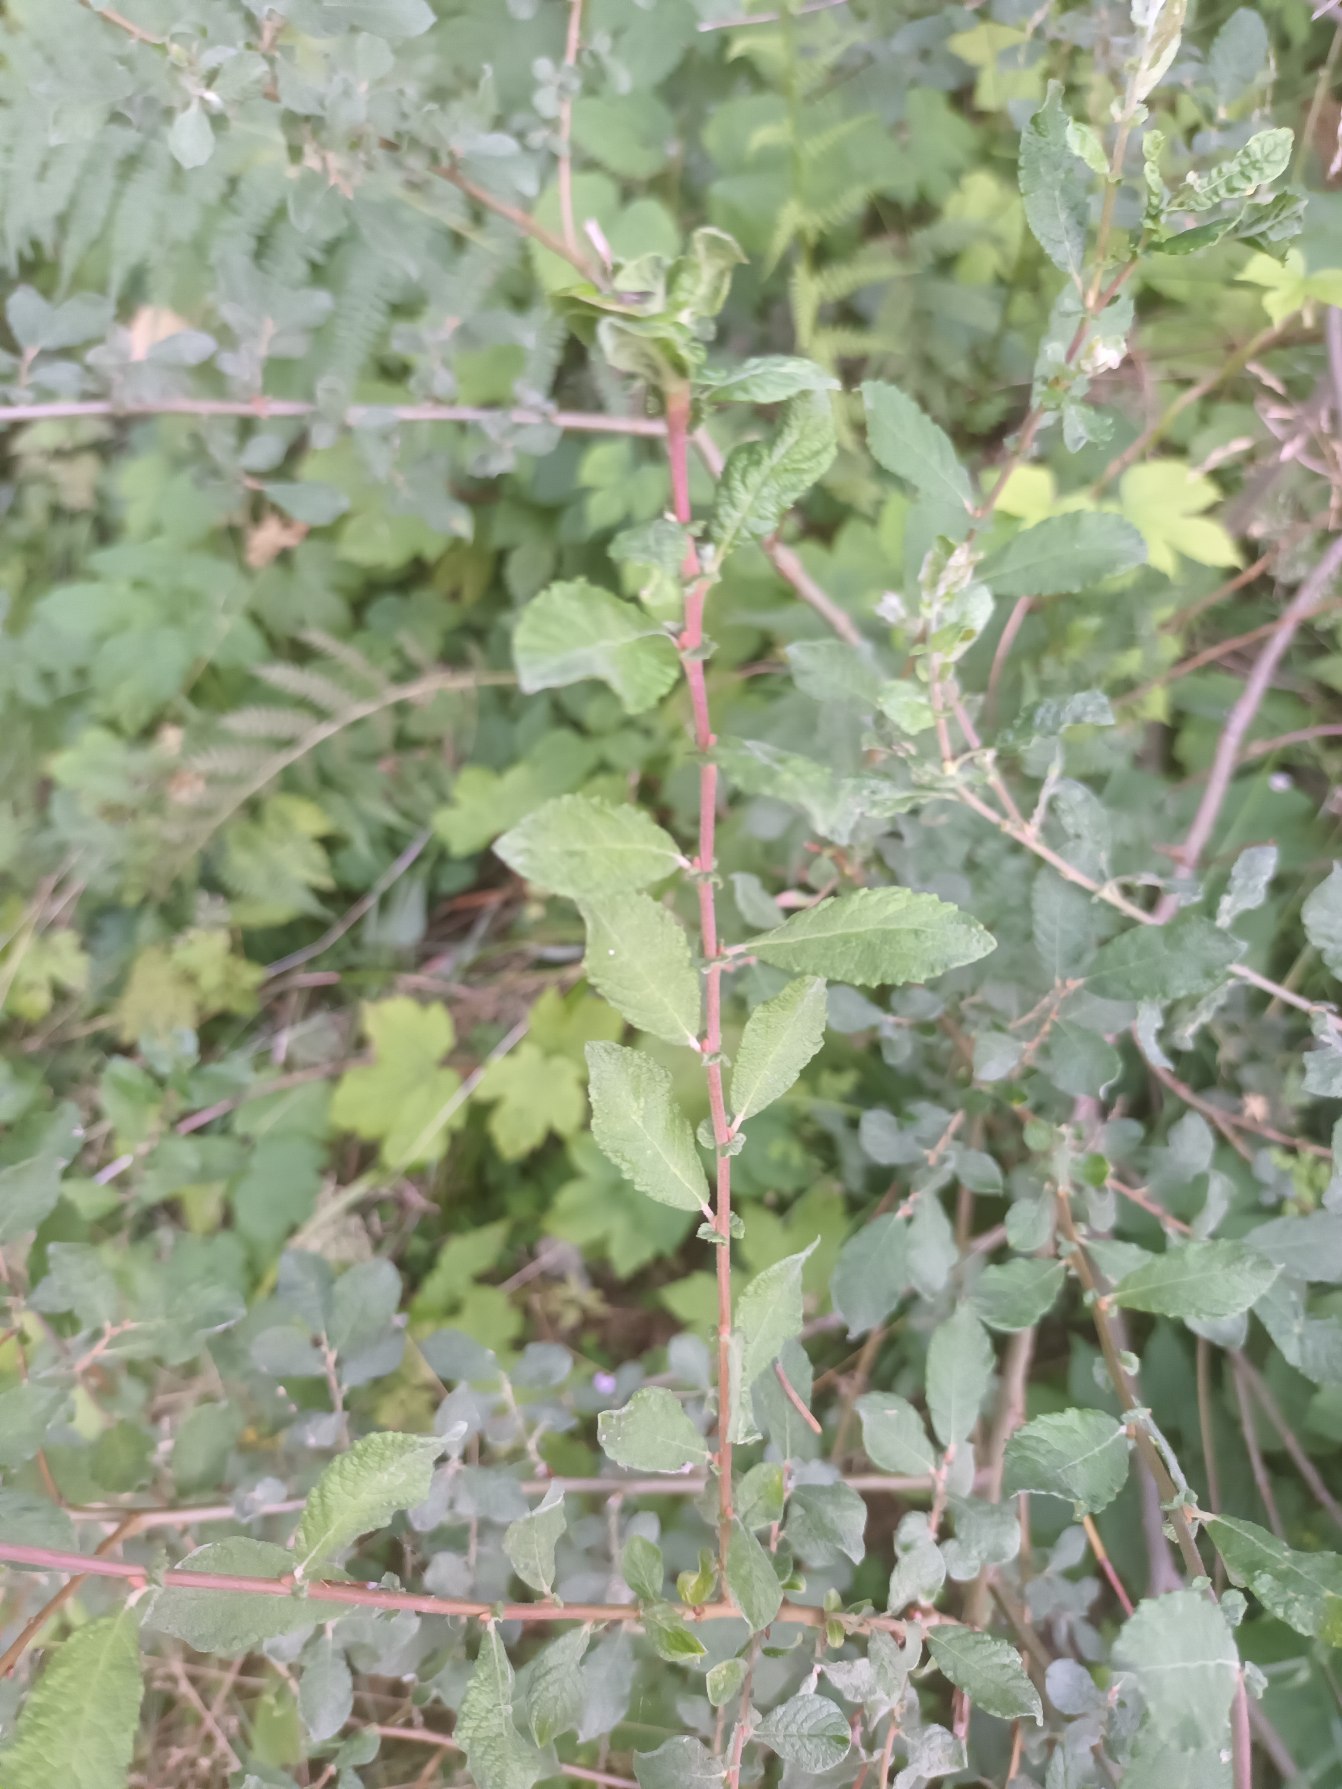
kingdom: Plantae
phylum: Tracheophyta
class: Magnoliopsida
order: Malpighiales
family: Salicaceae
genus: Salix
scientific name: Salix aurita
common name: Øret pil
